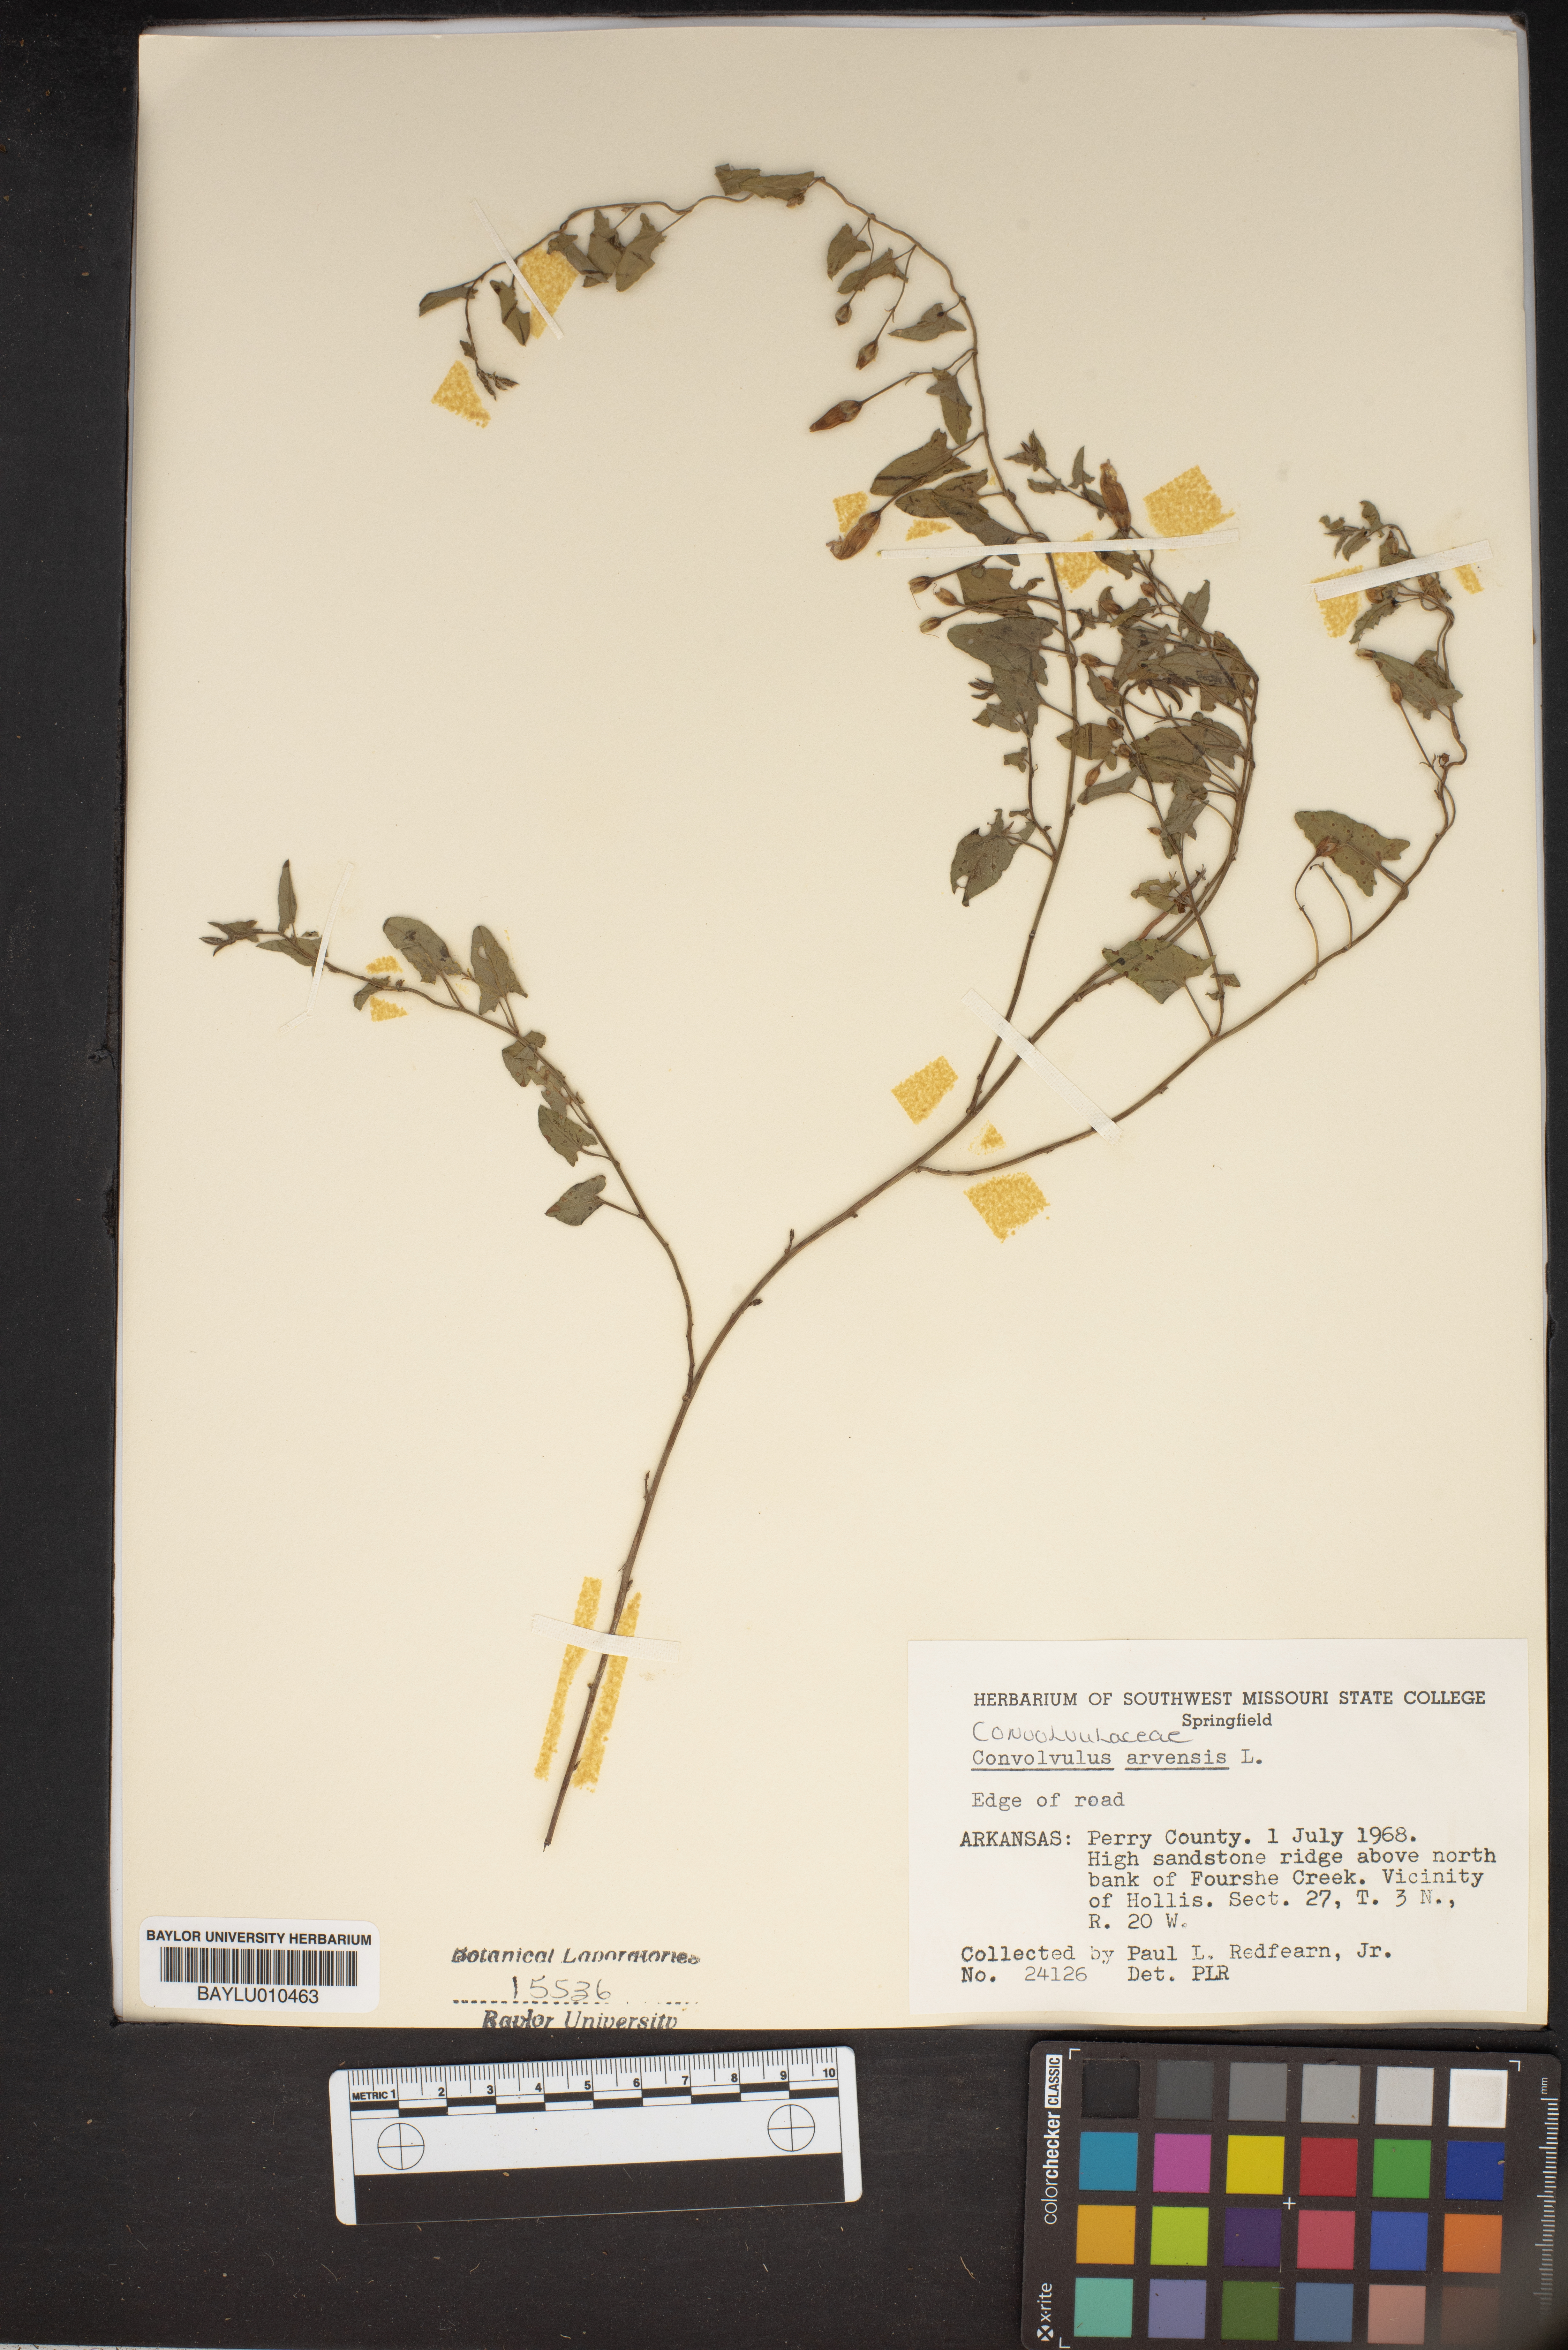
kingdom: Plantae
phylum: Tracheophyta
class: Magnoliopsida
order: Solanales
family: Convolvulaceae
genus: Convolvulus
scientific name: Convolvulus arvensis
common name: Field bindweed
